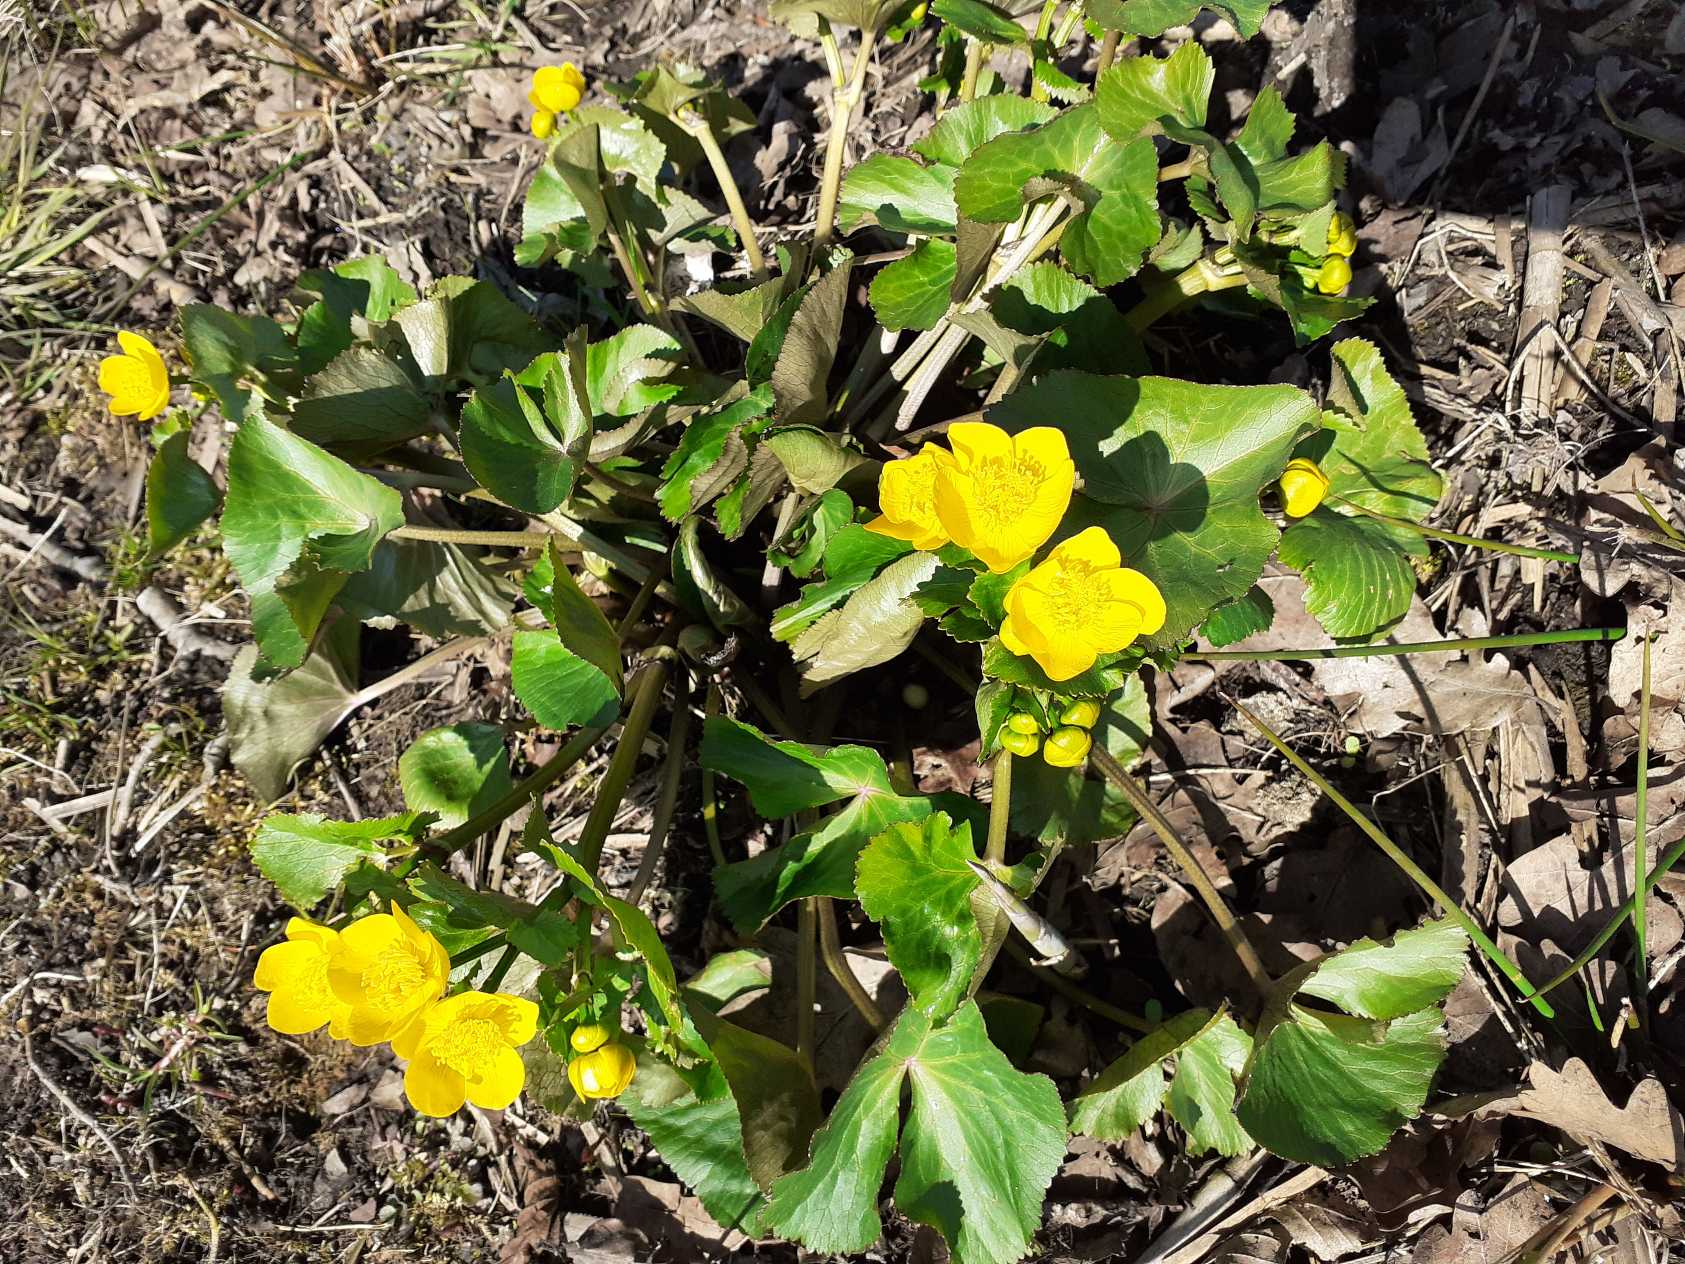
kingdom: Plantae
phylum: Tracheophyta
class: Magnoliopsida
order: Ranunculales
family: Ranunculaceae
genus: Caltha
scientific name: Caltha palustris
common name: Eng-kabbeleje
